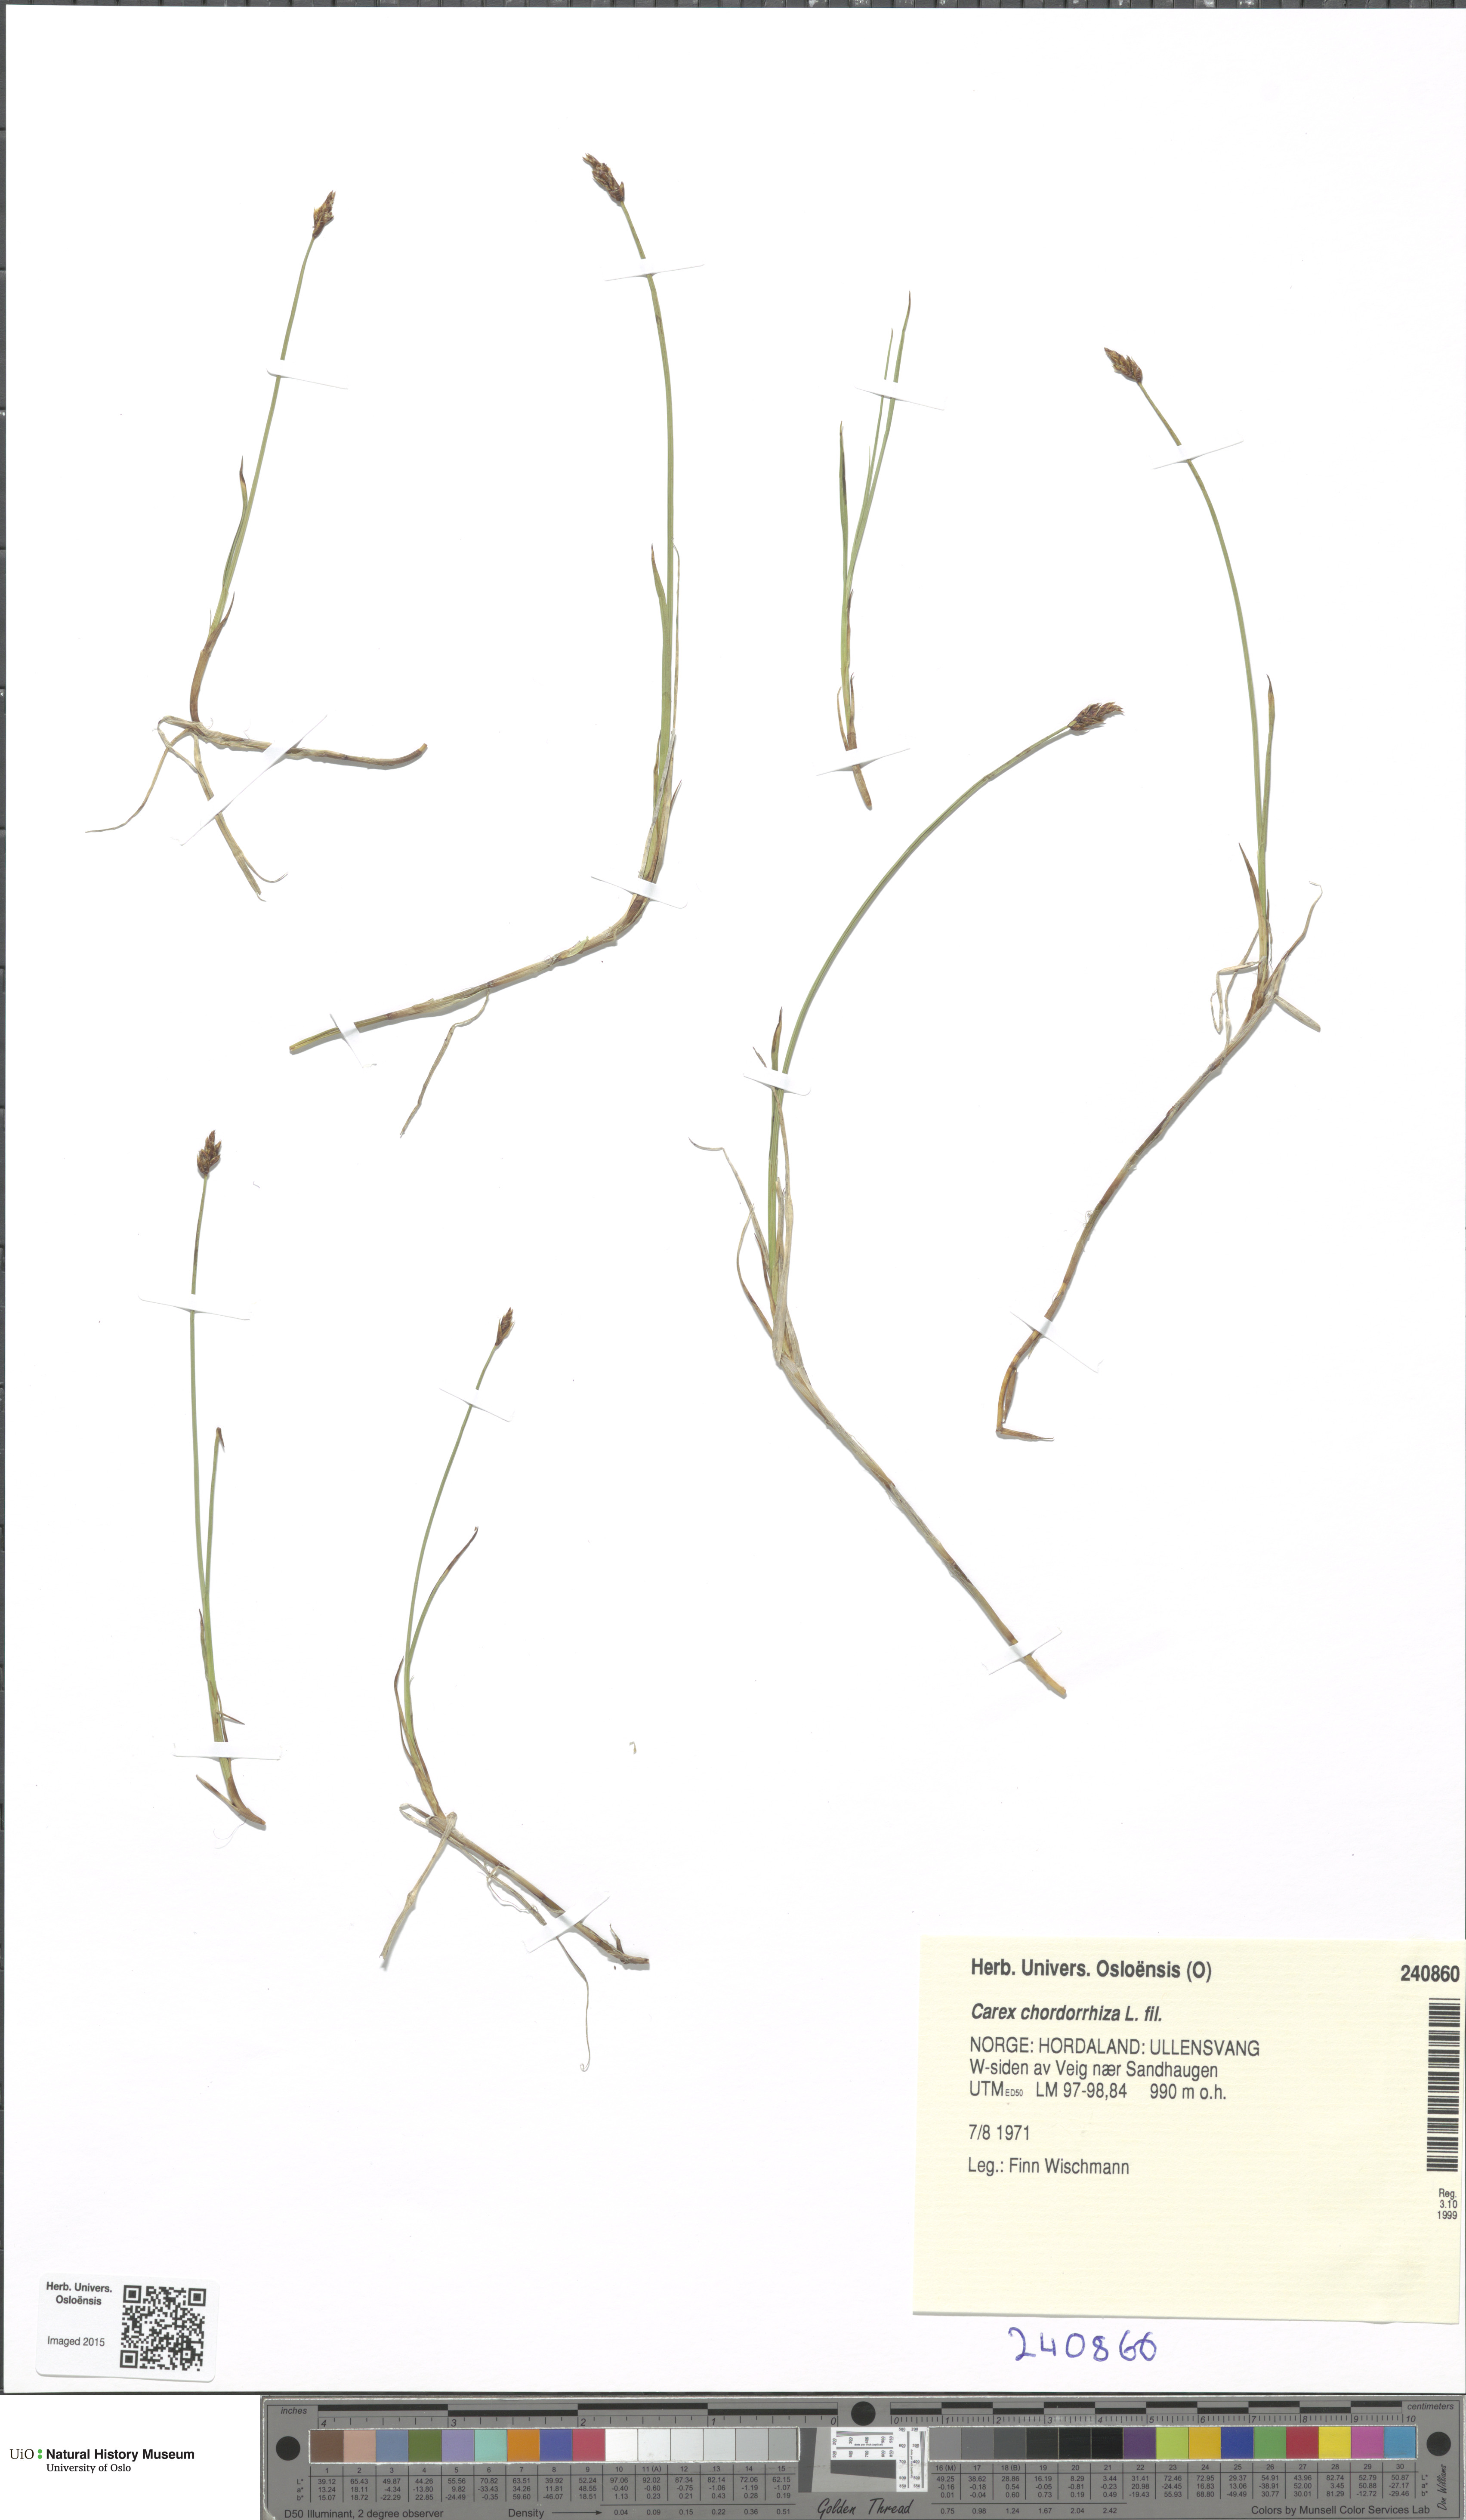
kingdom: Plantae
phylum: Tracheophyta
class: Liliopsida
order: Poales
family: Cyperaceae
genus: Carex
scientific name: Carex chordorrhiza
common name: String sedge
